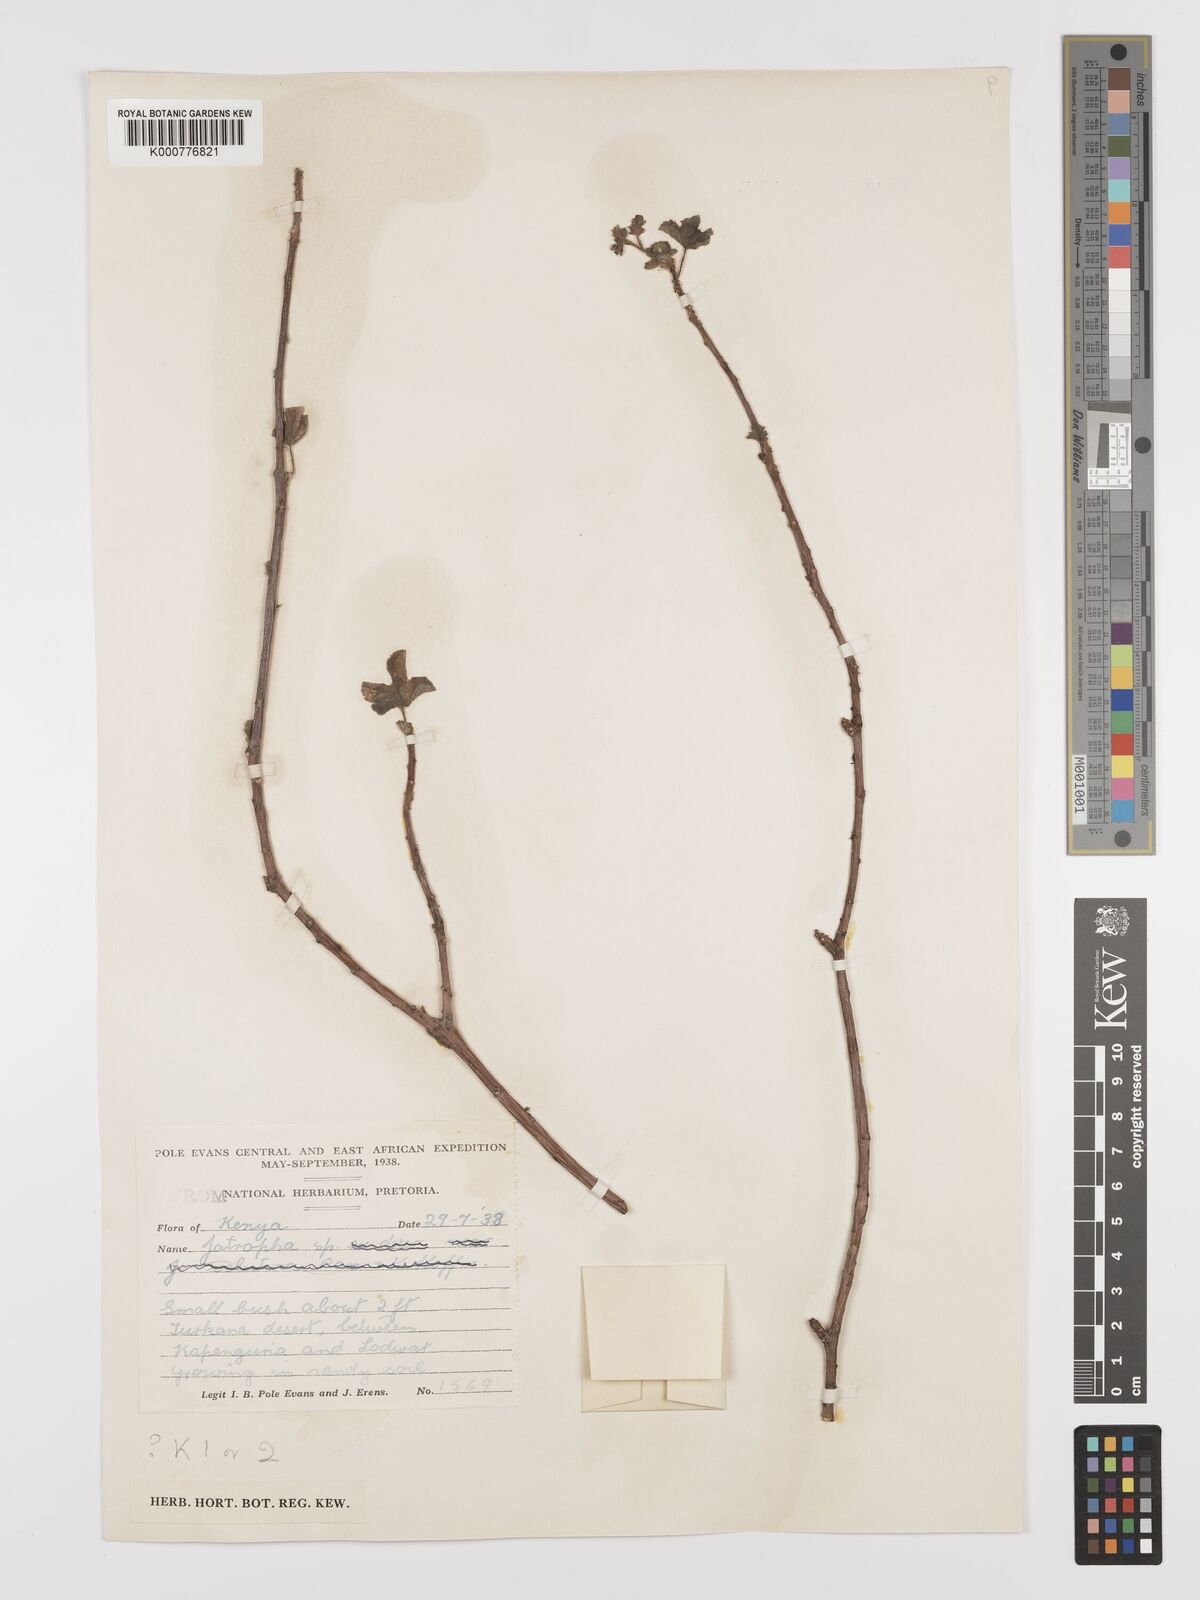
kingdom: Plantae
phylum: Tracheophyta
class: Magnoliopsida
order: Malpighiales
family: Euphorbiaceae
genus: Jatropha
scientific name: Jatropha pelargoniifolia
